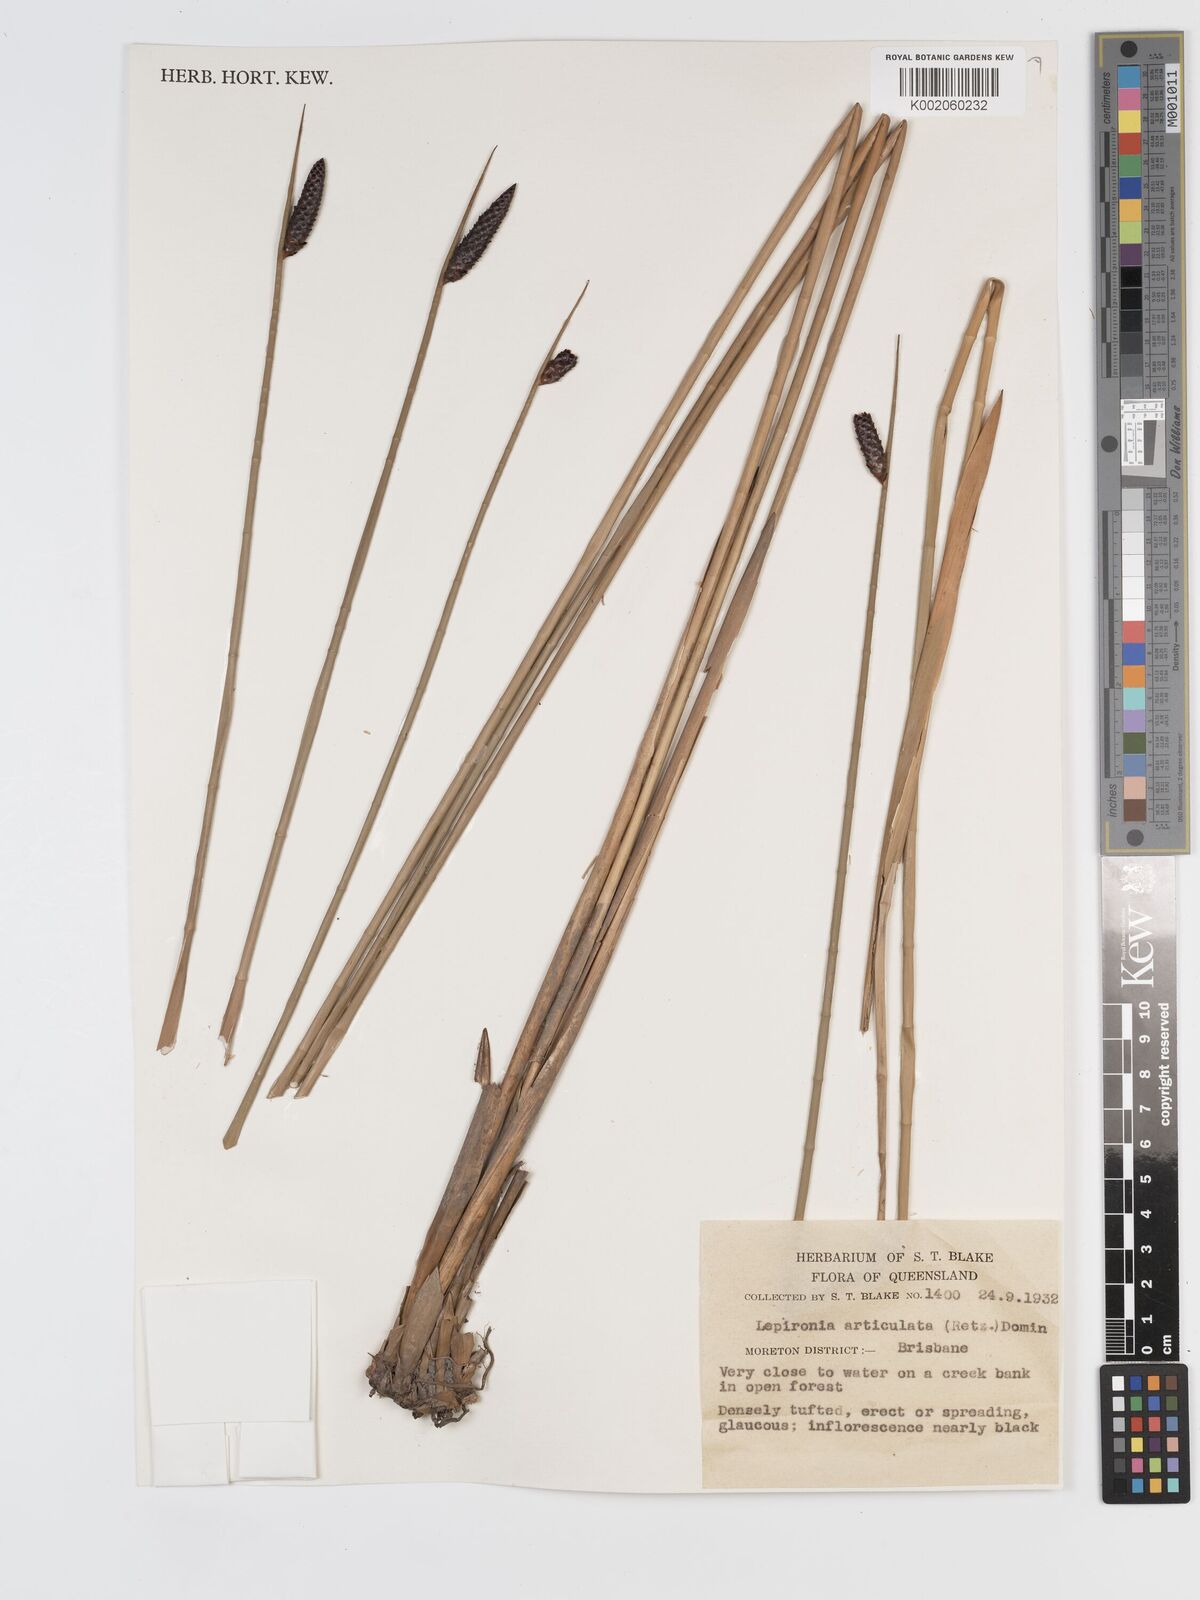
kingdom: Plantae
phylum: Tracheophyta
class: Liliopsida
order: Poales
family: Cyperaceae
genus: Lepironia
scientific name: Lepironia articulata
